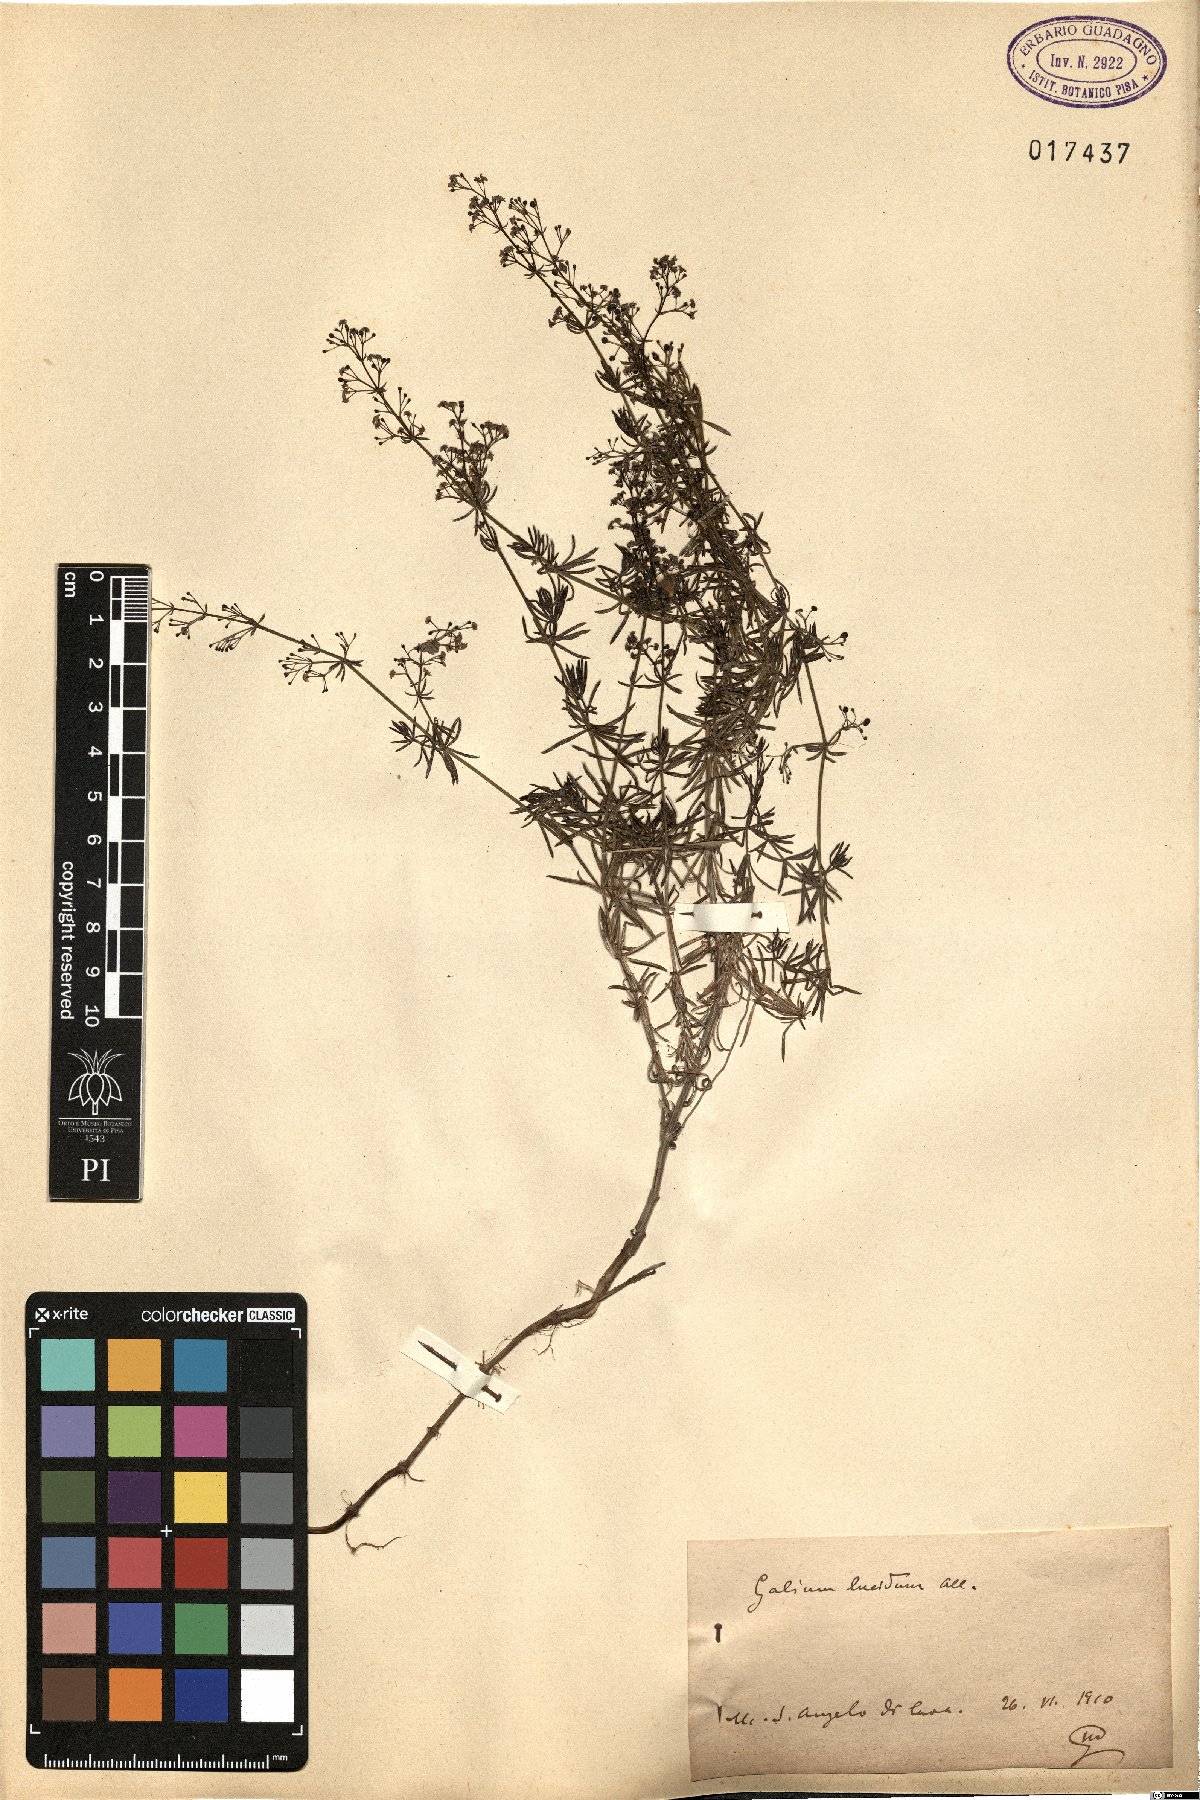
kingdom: Plantae
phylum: Tracheophyta
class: Magnoliopsida
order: Gentianales
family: Rubiaceae
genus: Galium
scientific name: Galium lucidum
